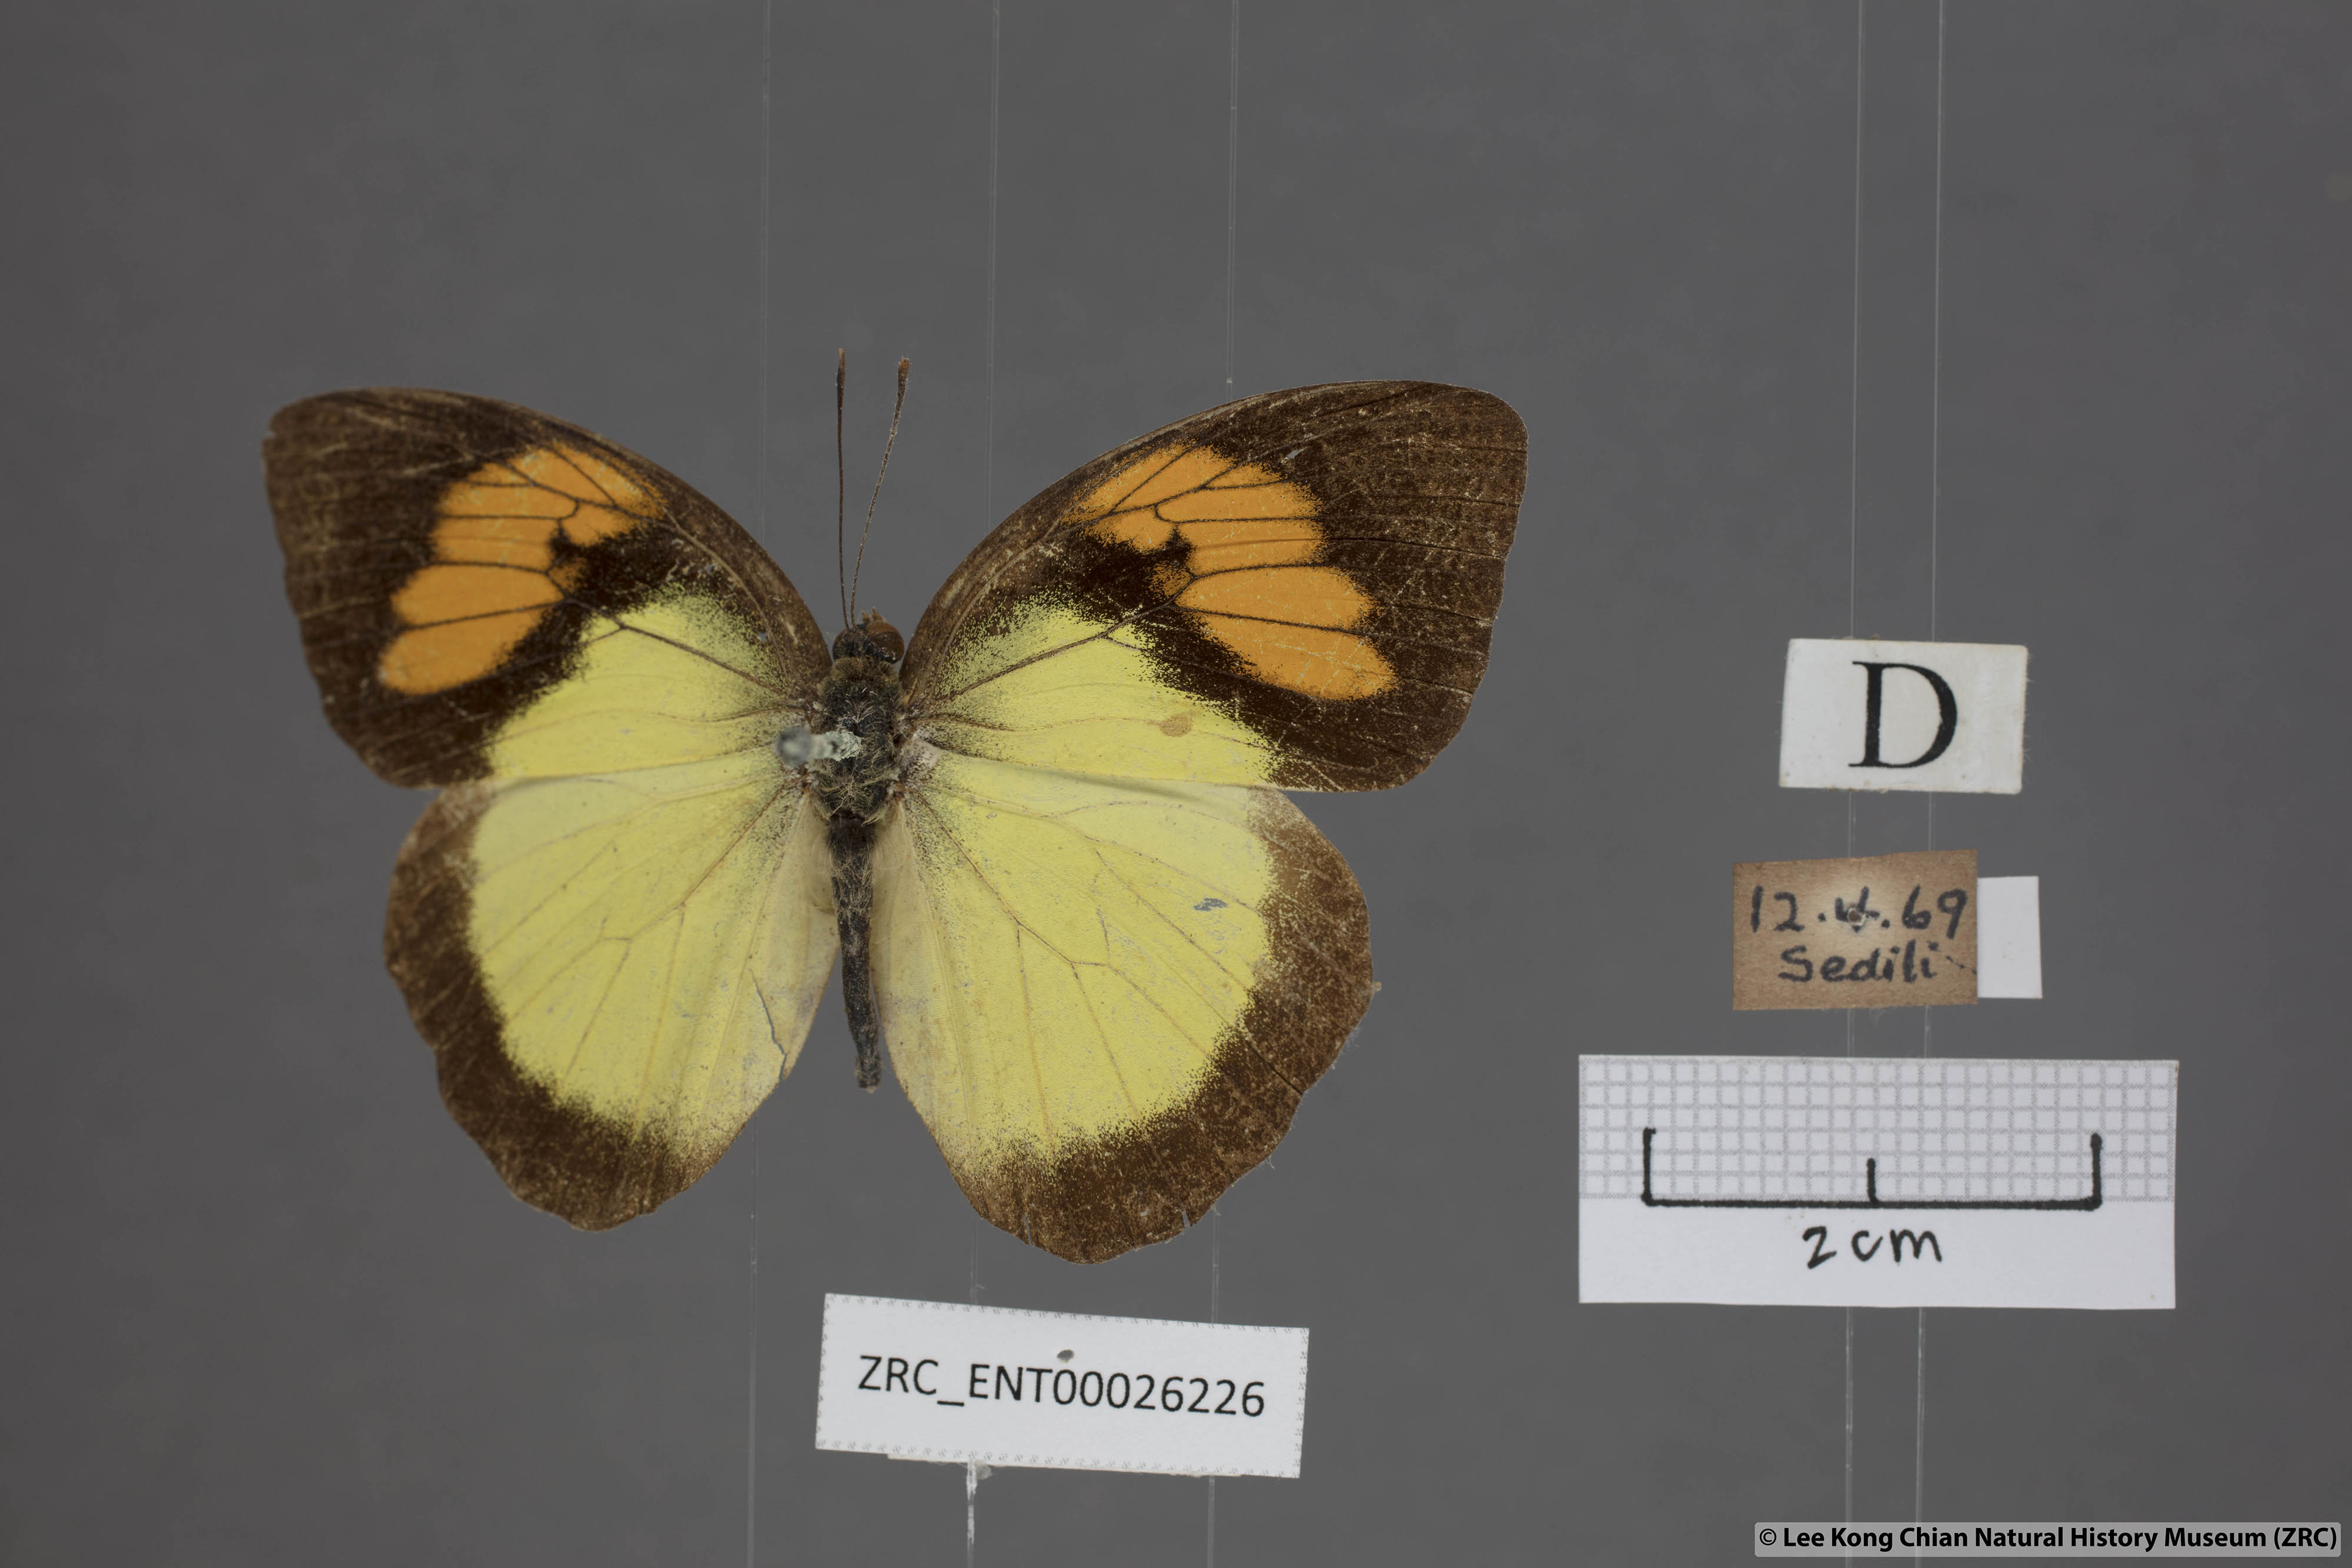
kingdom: Animalia
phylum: Arthropoda
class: Insecta
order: Lepidoptera
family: Pieridae
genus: Ixias
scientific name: Ixias pyrene
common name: Yellow orange tip
